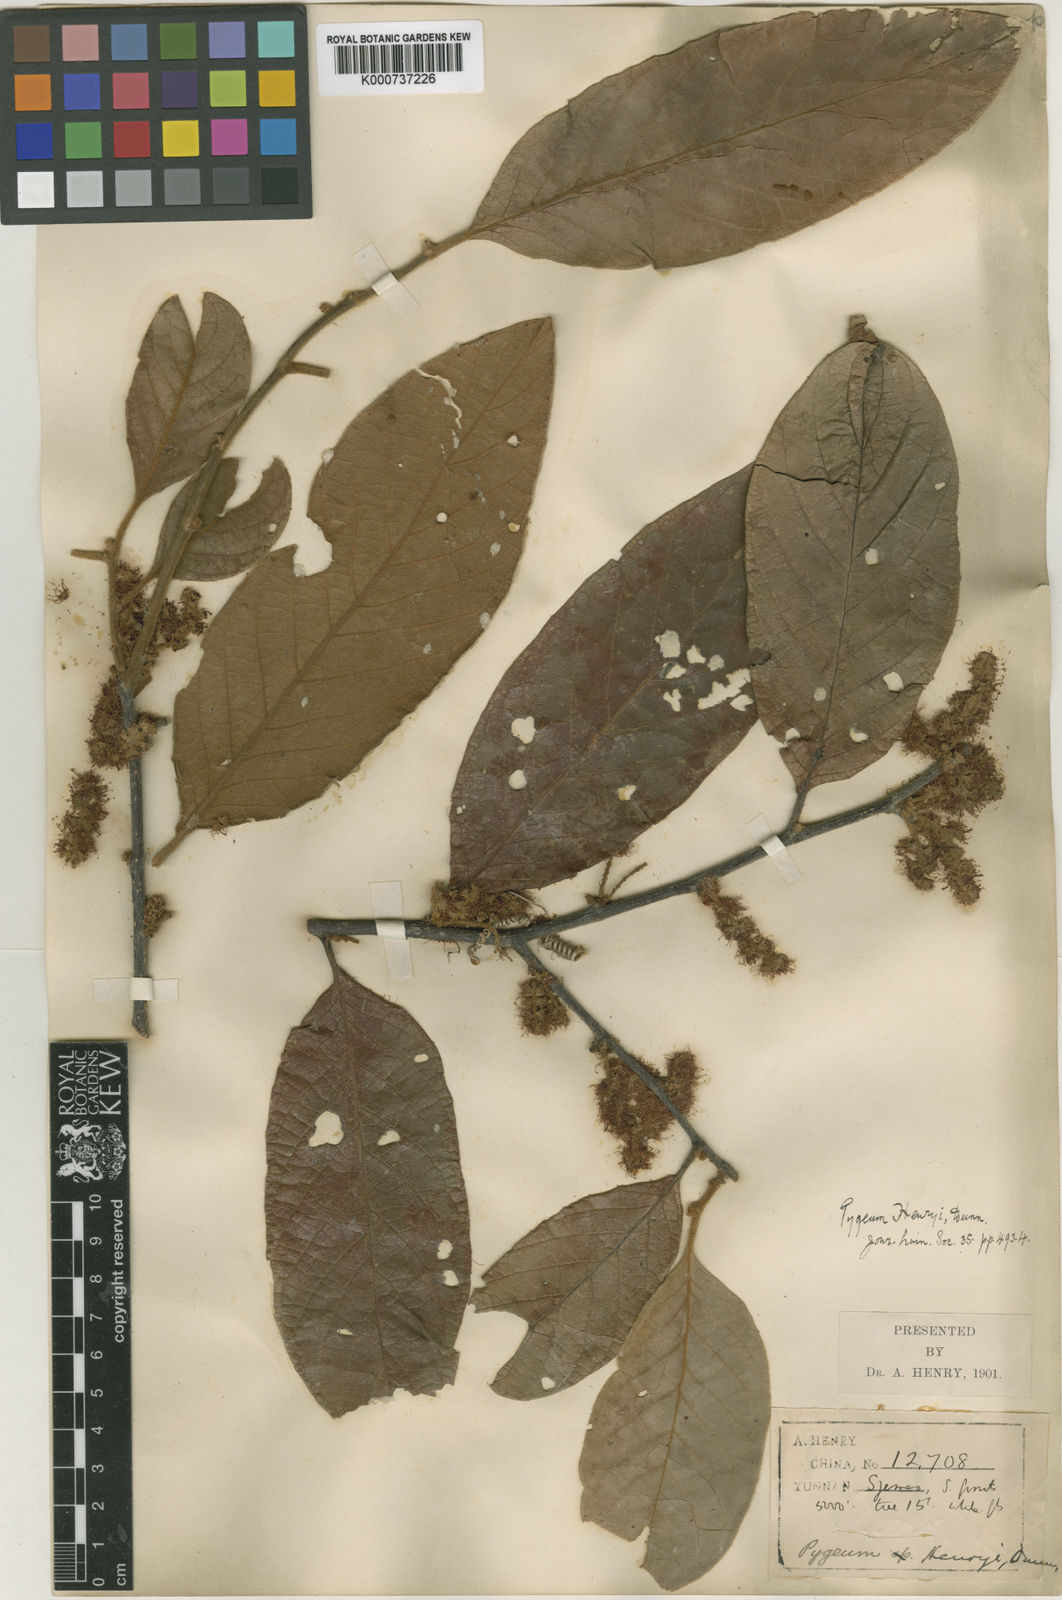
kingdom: Plantae
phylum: Tracheophyta
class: Magnoliopsida
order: Rosales
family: Rosaceae
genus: Prunus
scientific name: Prunus arborea
